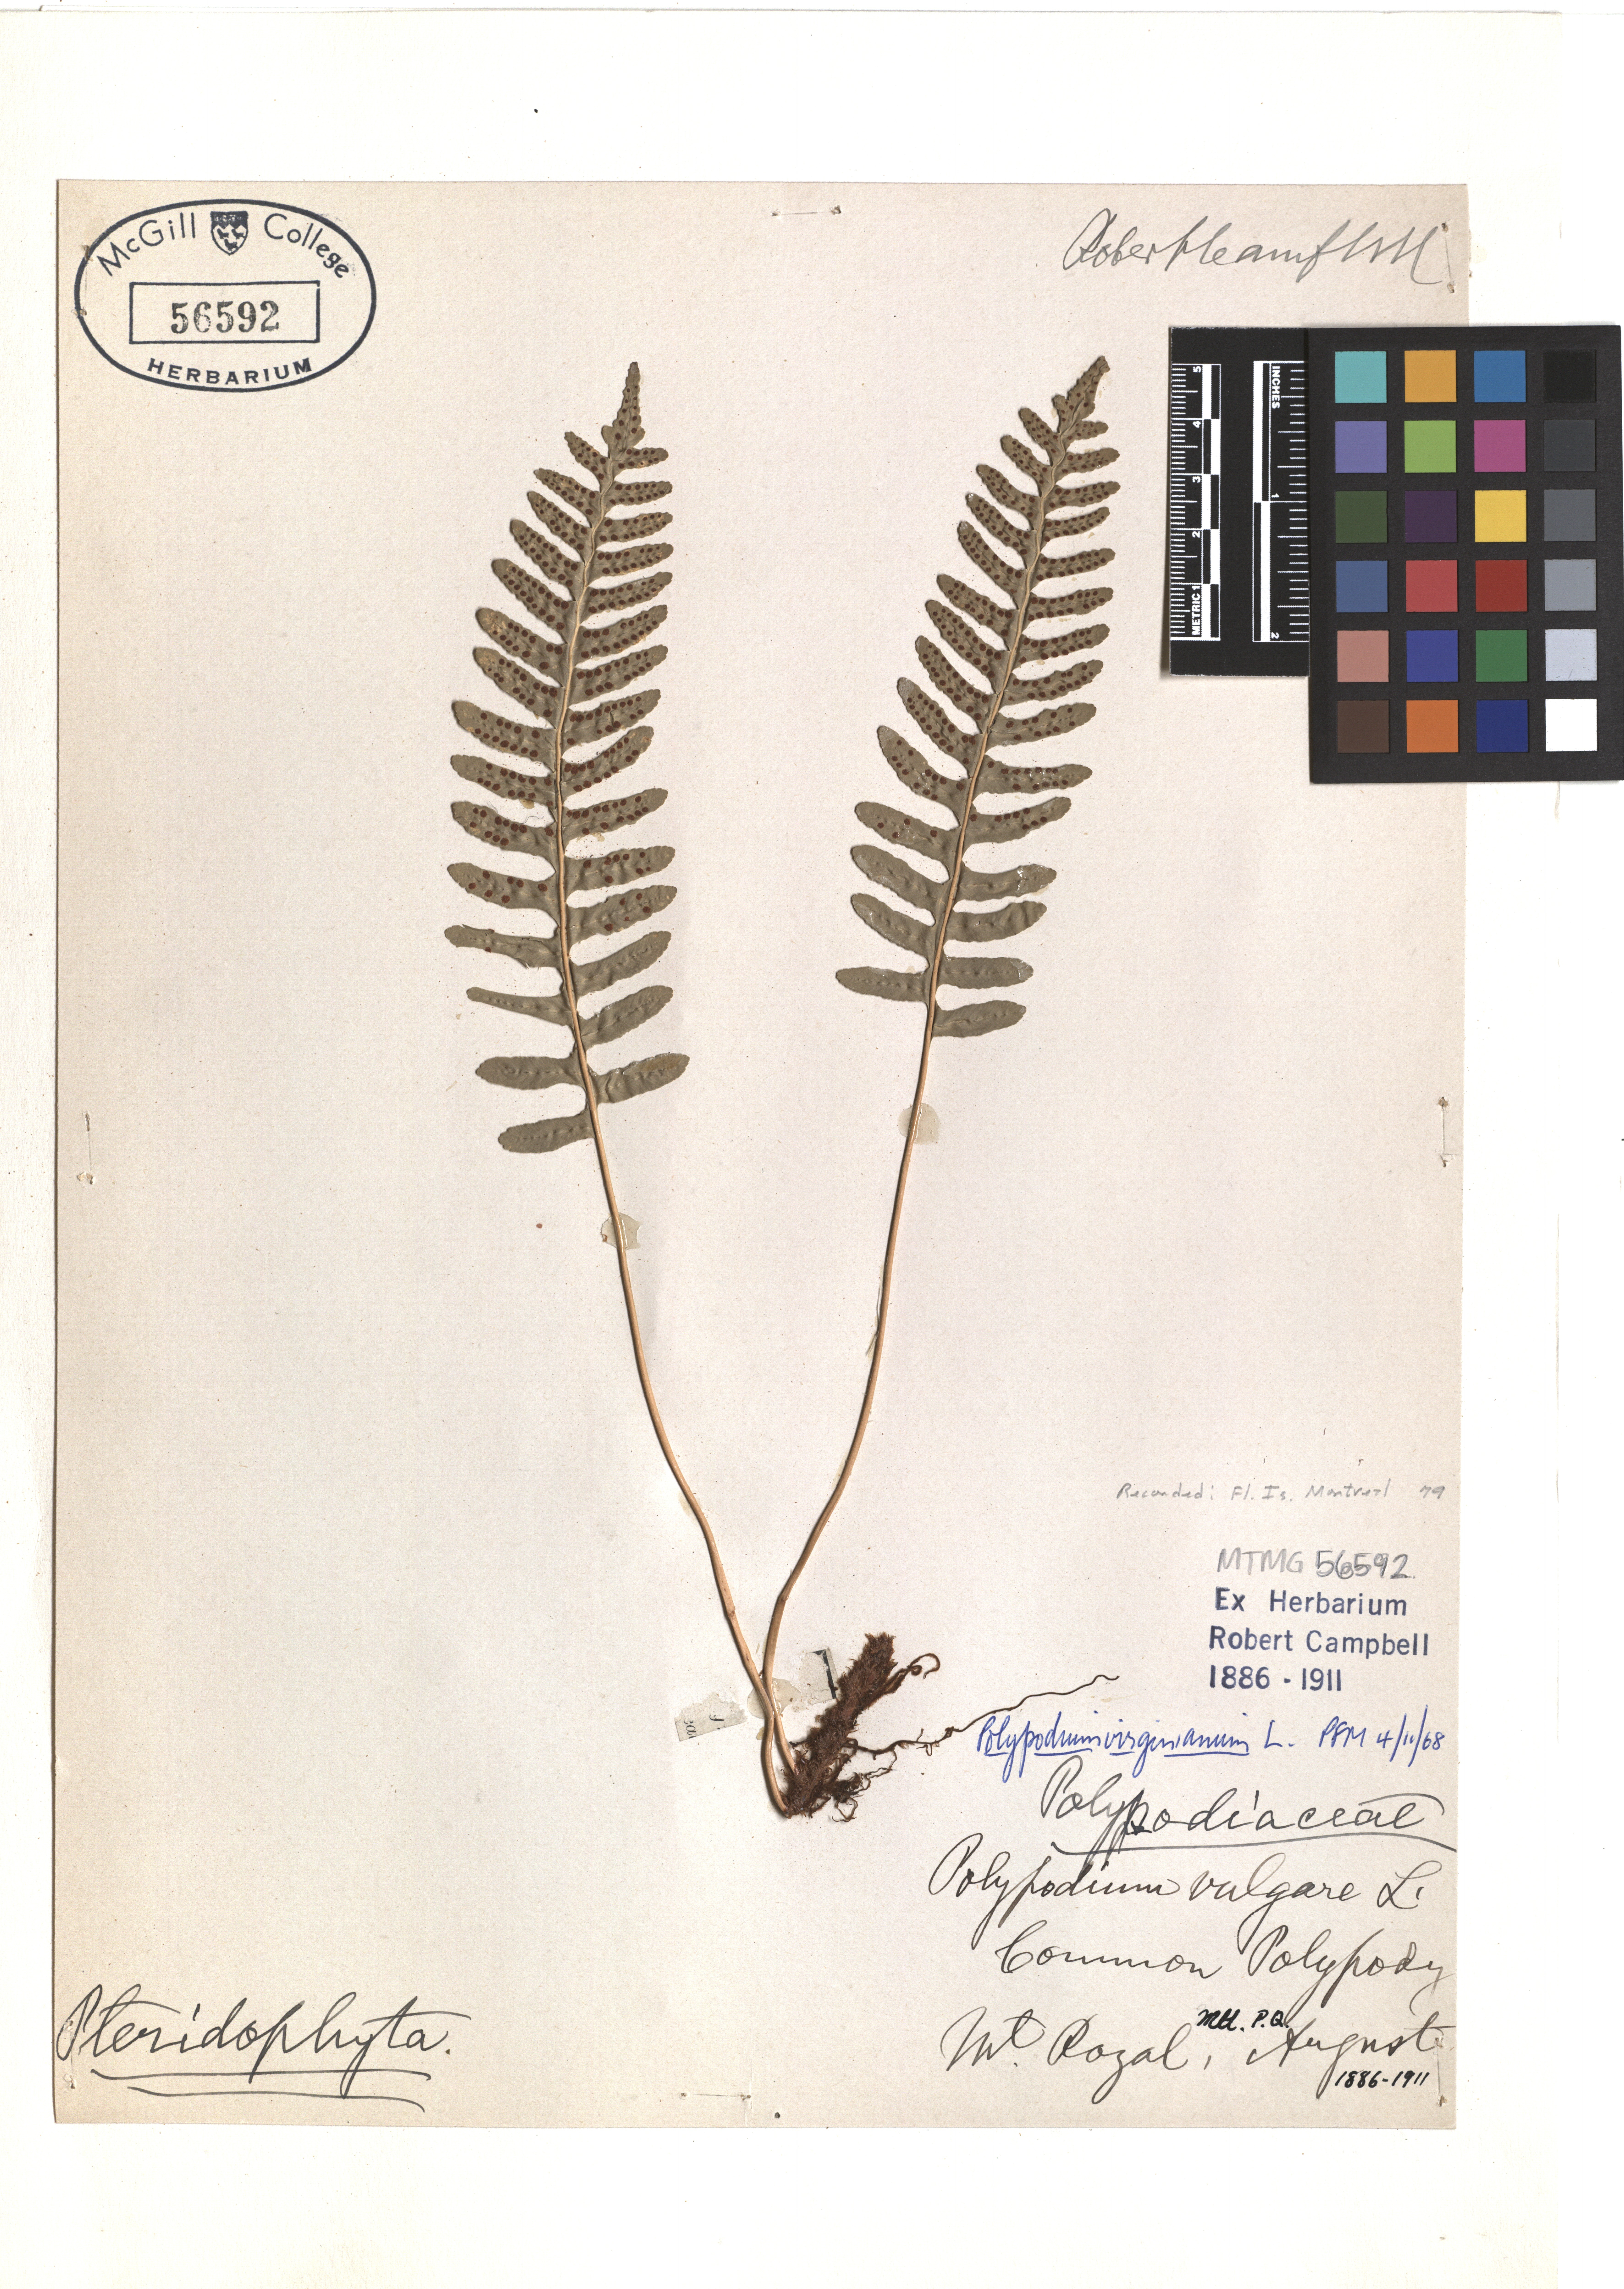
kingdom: Plantae
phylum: Tracheophyta
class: Polypodiopsida
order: Polypodiales
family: Polypodiaceae
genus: Polypodium
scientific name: Polypodium virginianum
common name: American wall fern
